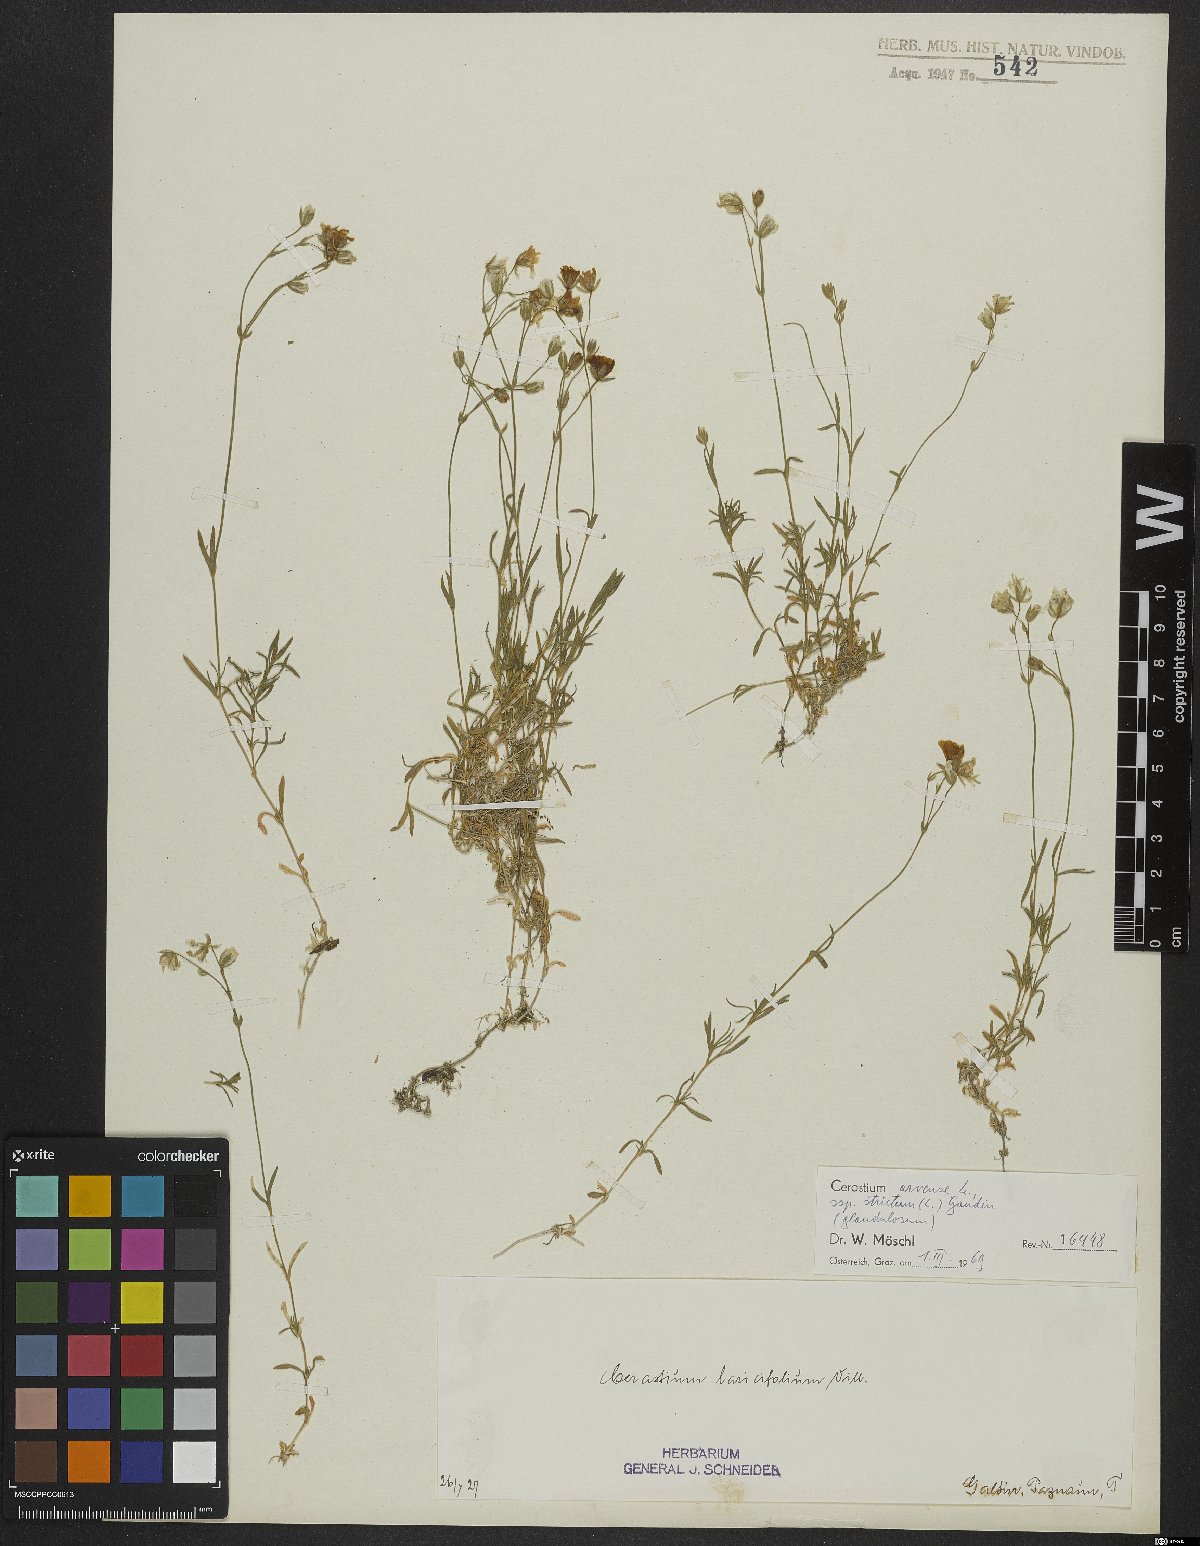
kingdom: Plantae
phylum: Tracheophyta
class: Magnoliopsida
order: Caryophyllales
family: Caryophyllaceae
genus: Cerastium
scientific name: Cerastium elongatum
